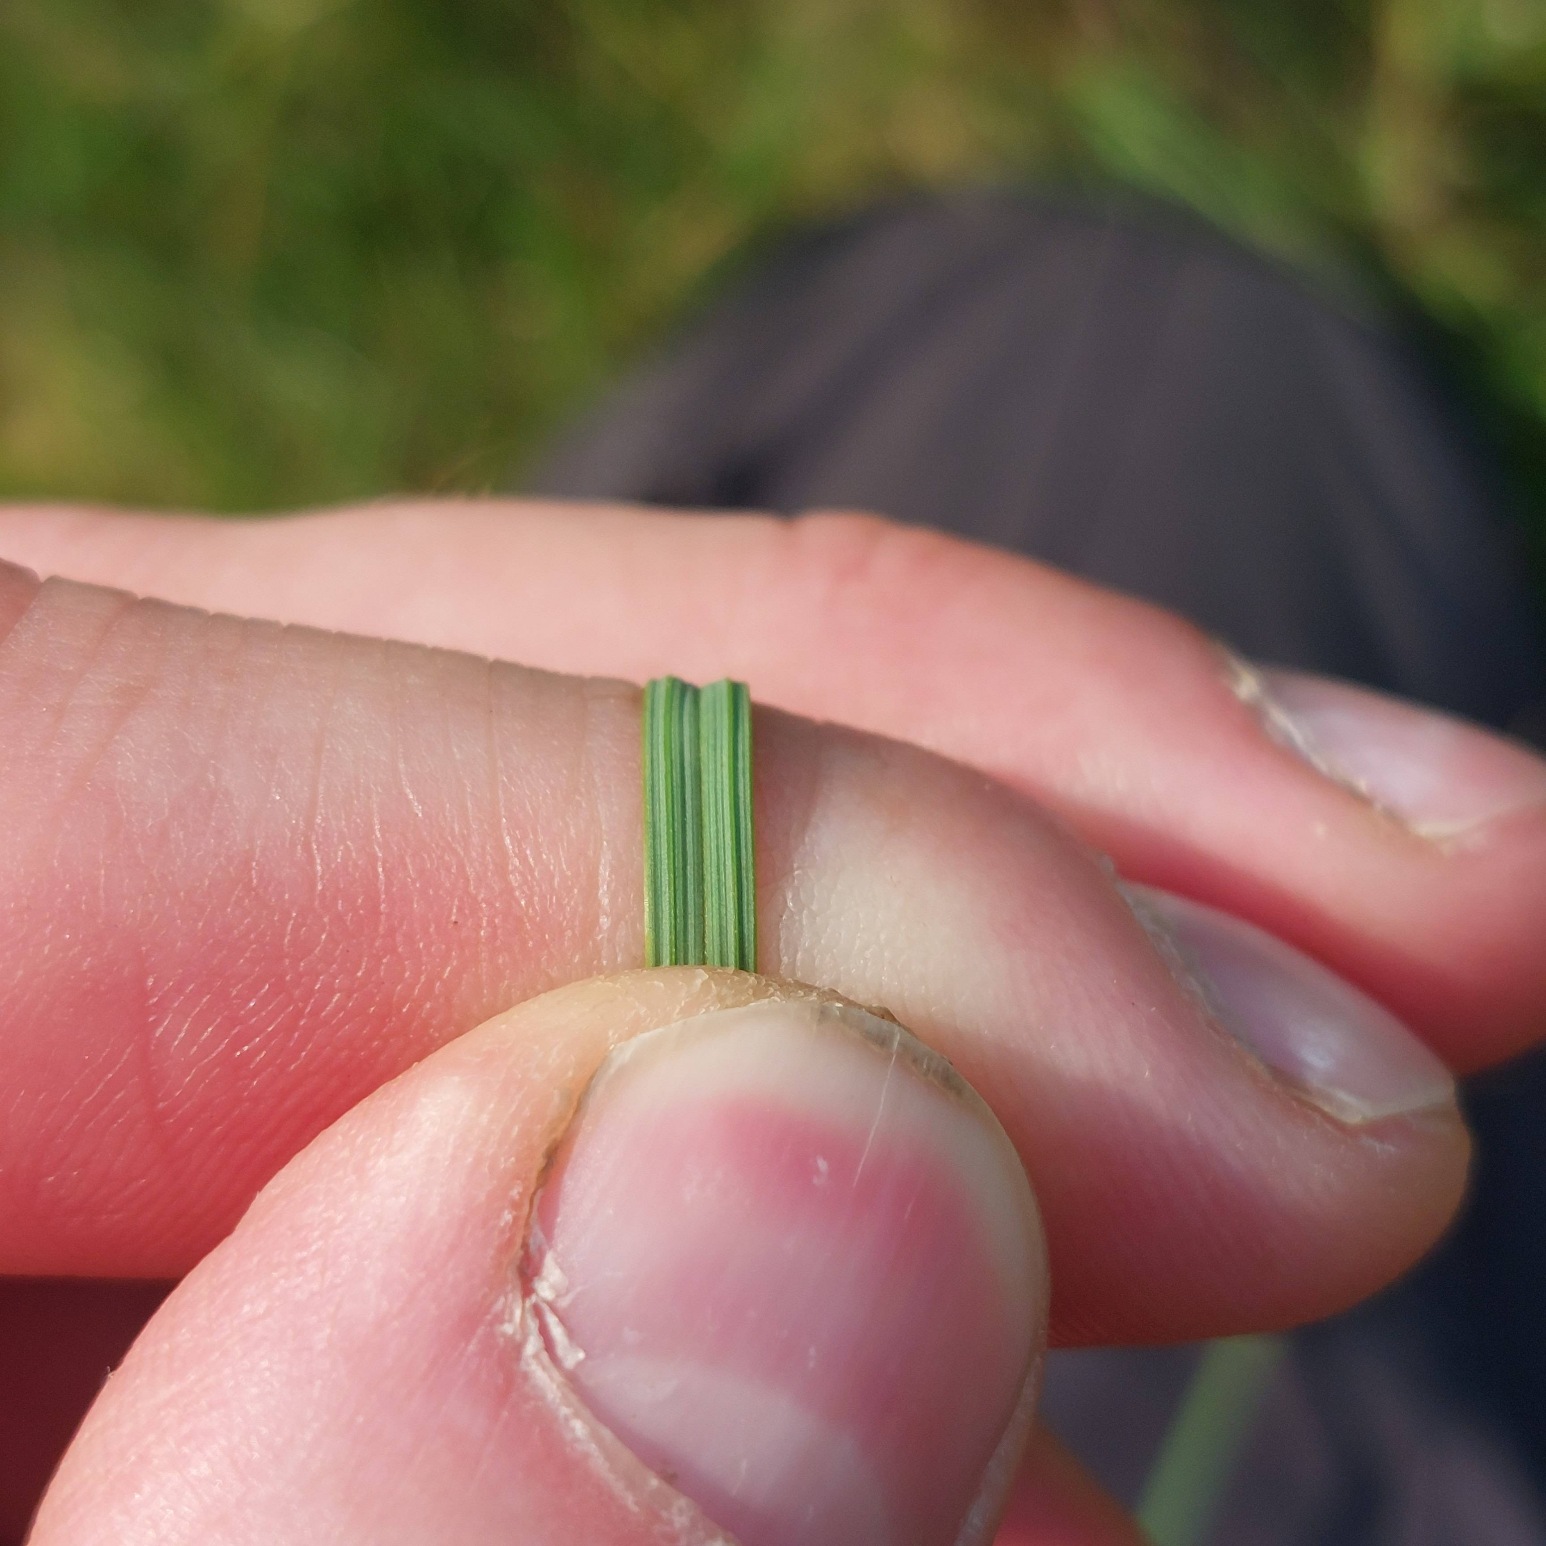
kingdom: Plantae
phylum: Tracheophyta
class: Liliopsida
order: Poales
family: Cyperaceae
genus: Carex
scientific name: Carex nigra
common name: Almindelig star
